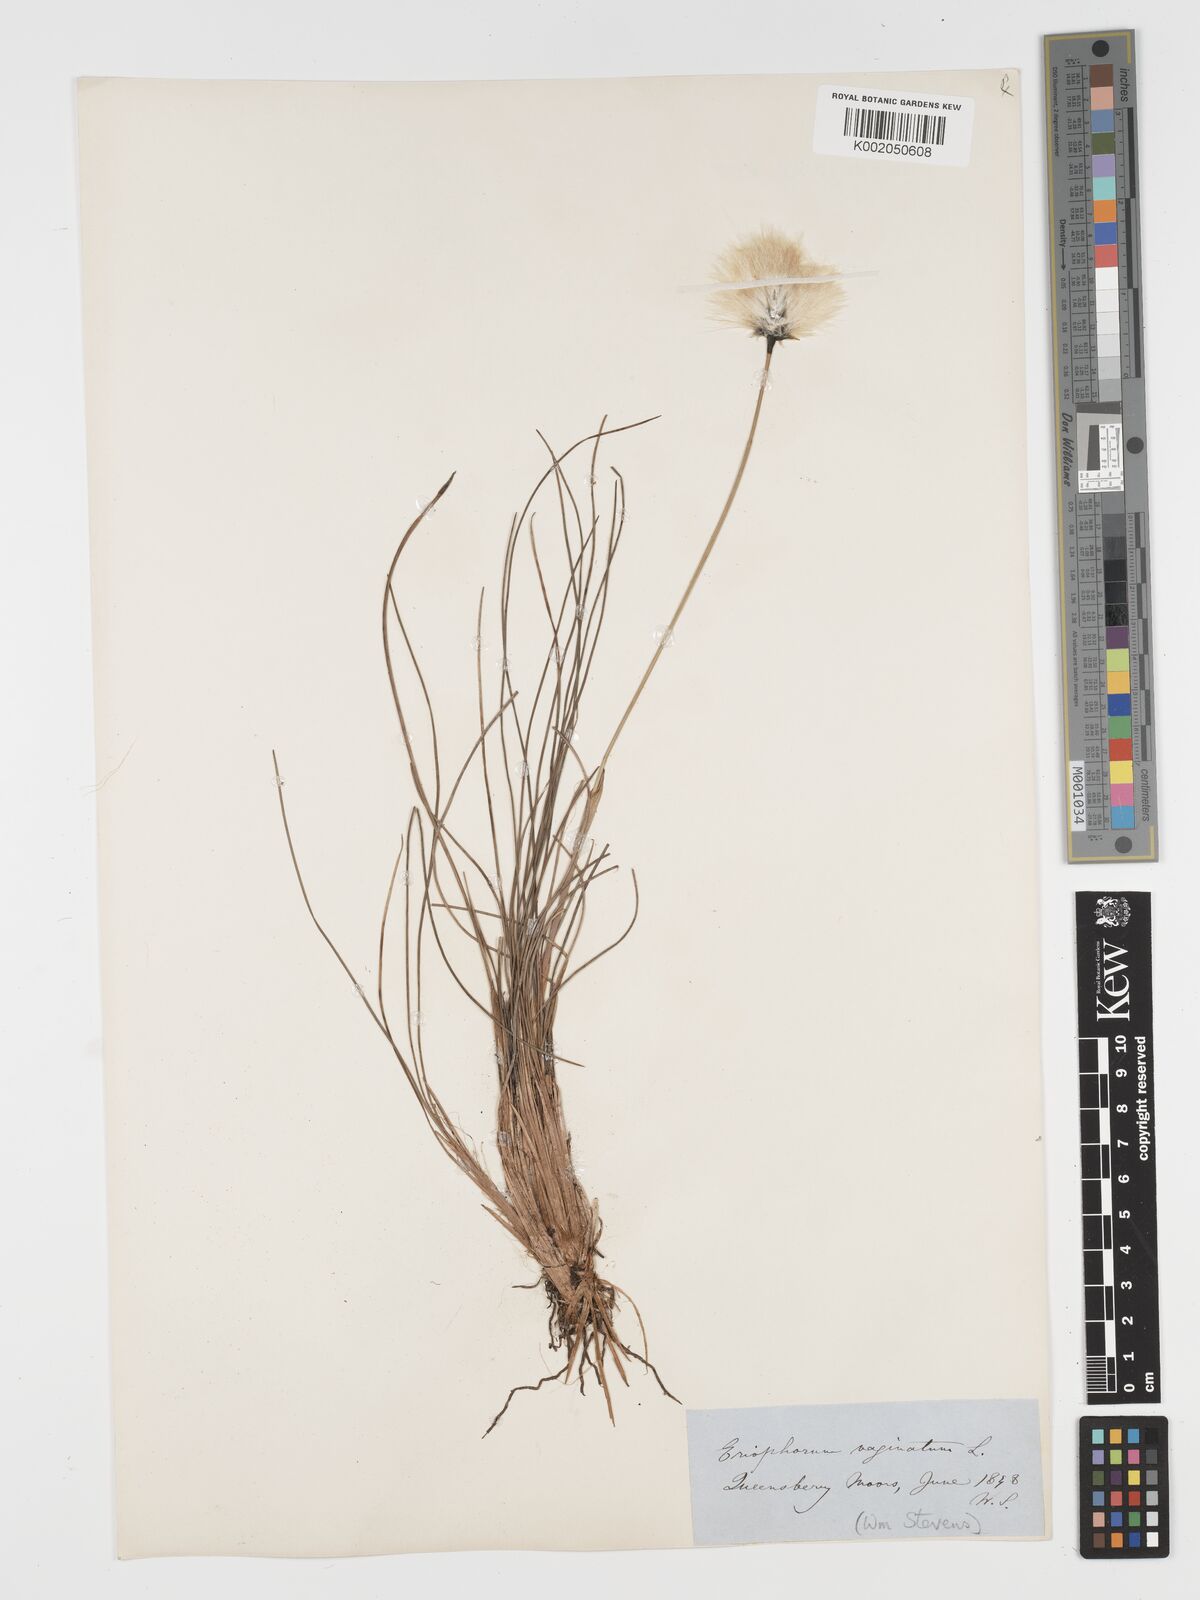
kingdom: Plantae
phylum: Tracheophyta
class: Liliopsida
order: Poales
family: Cyperaceae
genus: Eriophorum
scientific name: Eriophorum vaginatum
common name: Hare's-tail cottongrass
